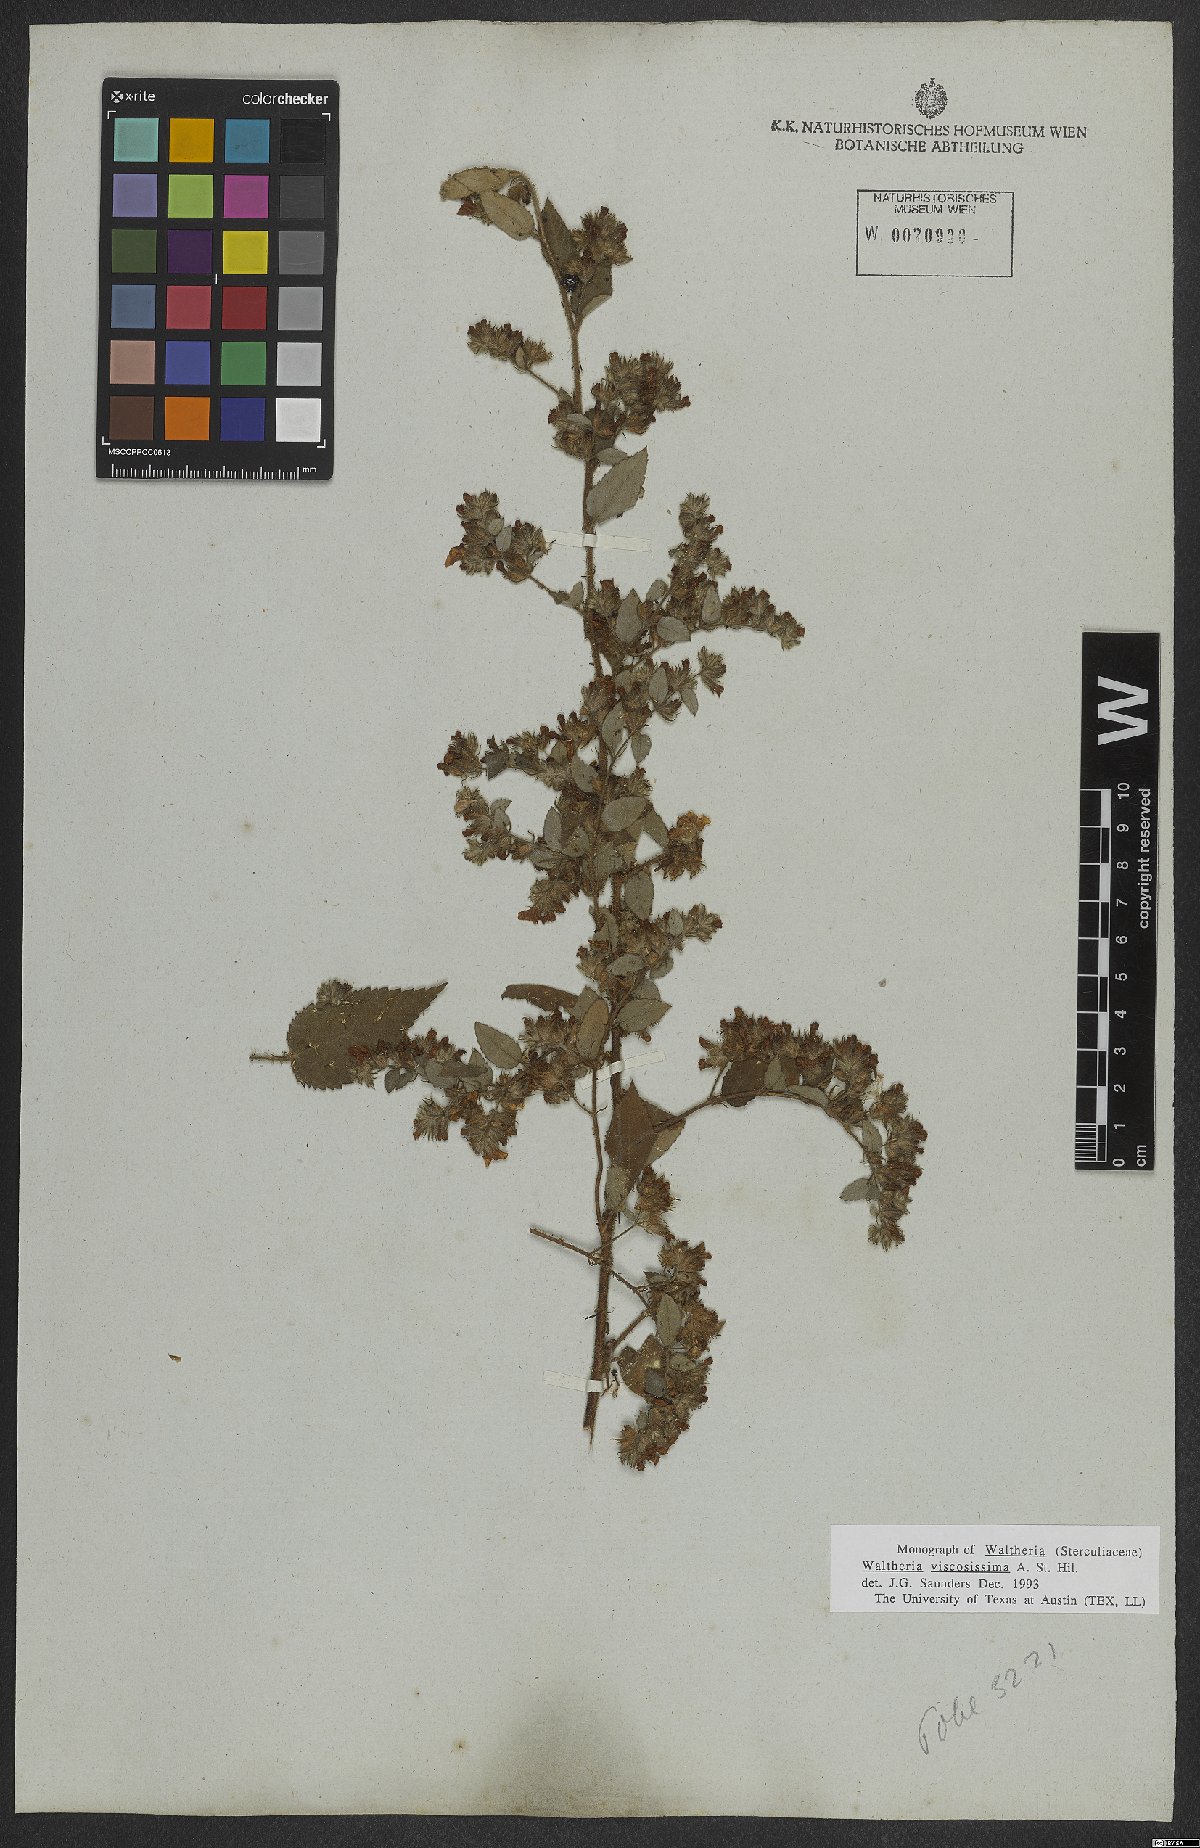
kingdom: Plantae
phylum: Tracheophyta
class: Magnoliopsida
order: Malvales
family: Malvaceae
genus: Waltheria
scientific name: Waltheria viscosissima
